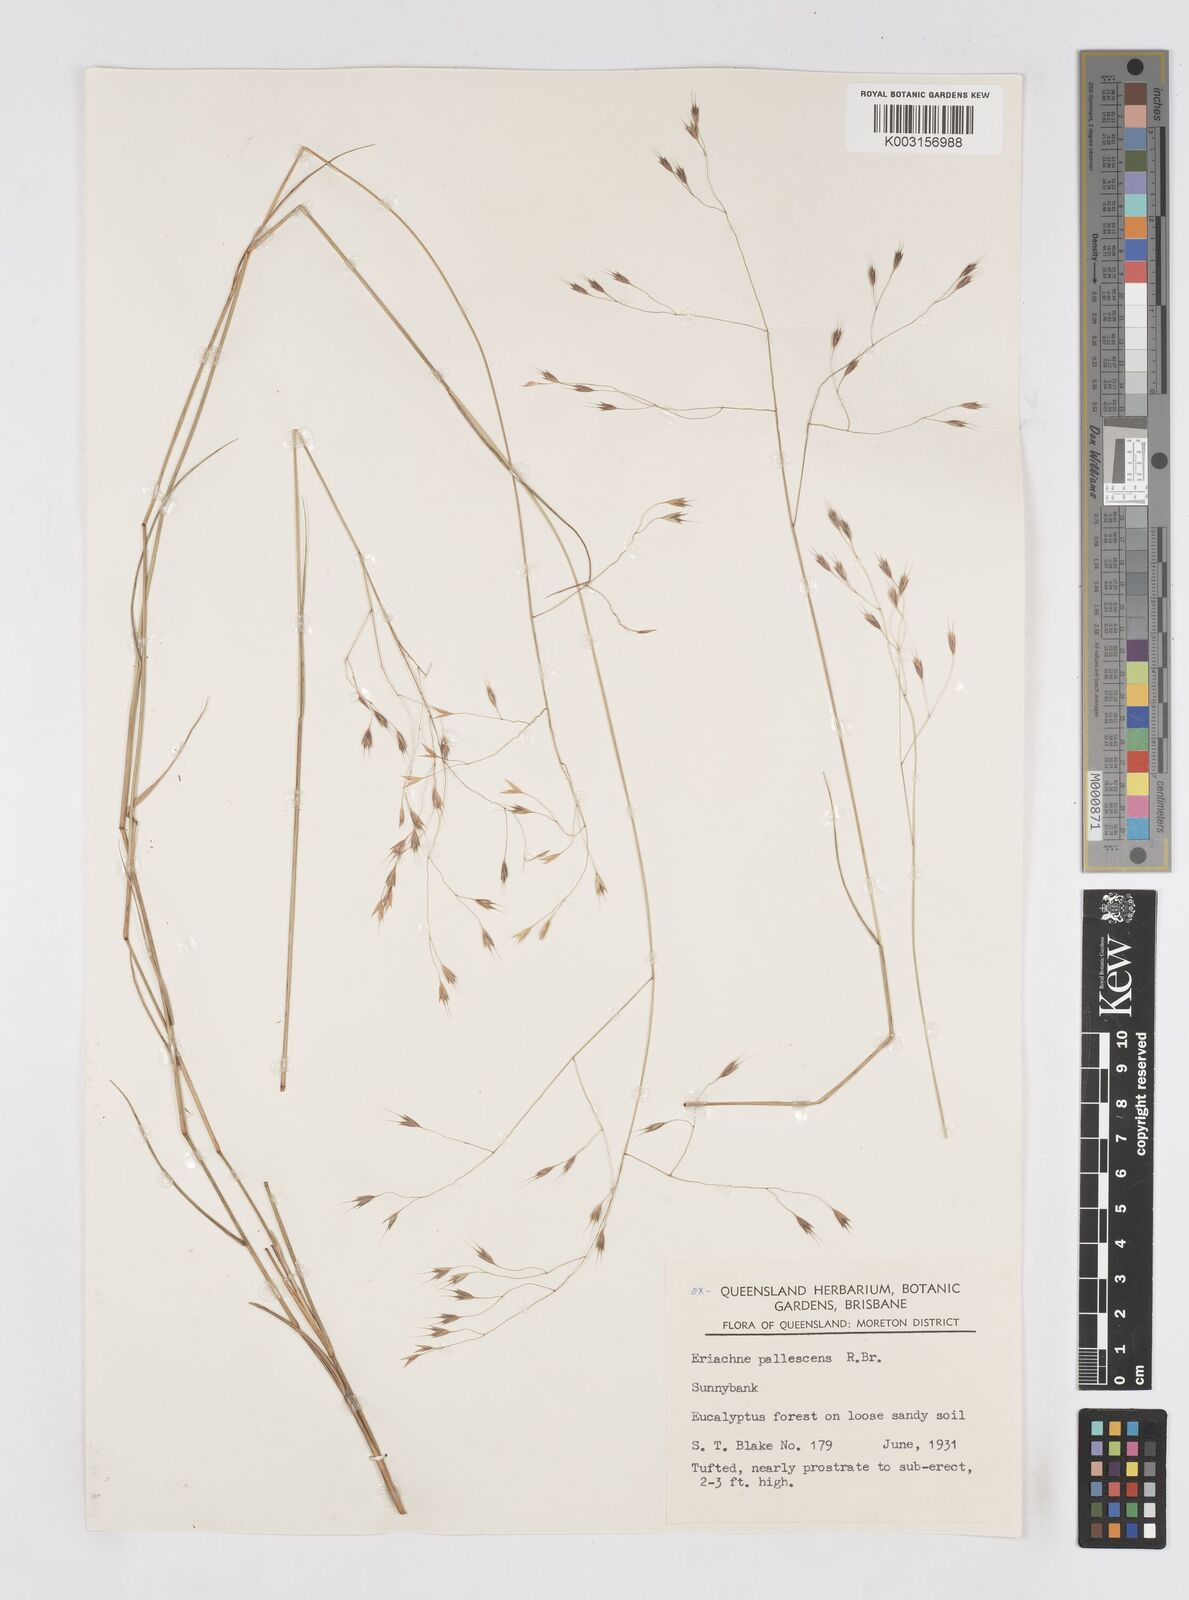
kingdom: Plantae
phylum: Tracheophyta
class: Liliopsida
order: Poales
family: Poaceae
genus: Eriachne
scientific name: Eriachne pallescens
